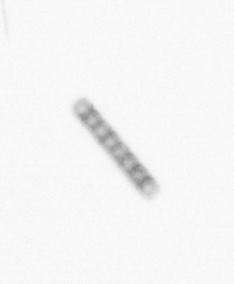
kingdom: Chromista
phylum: Ochrophyta
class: Bacillariophyceae
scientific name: Bacillariophyceae
